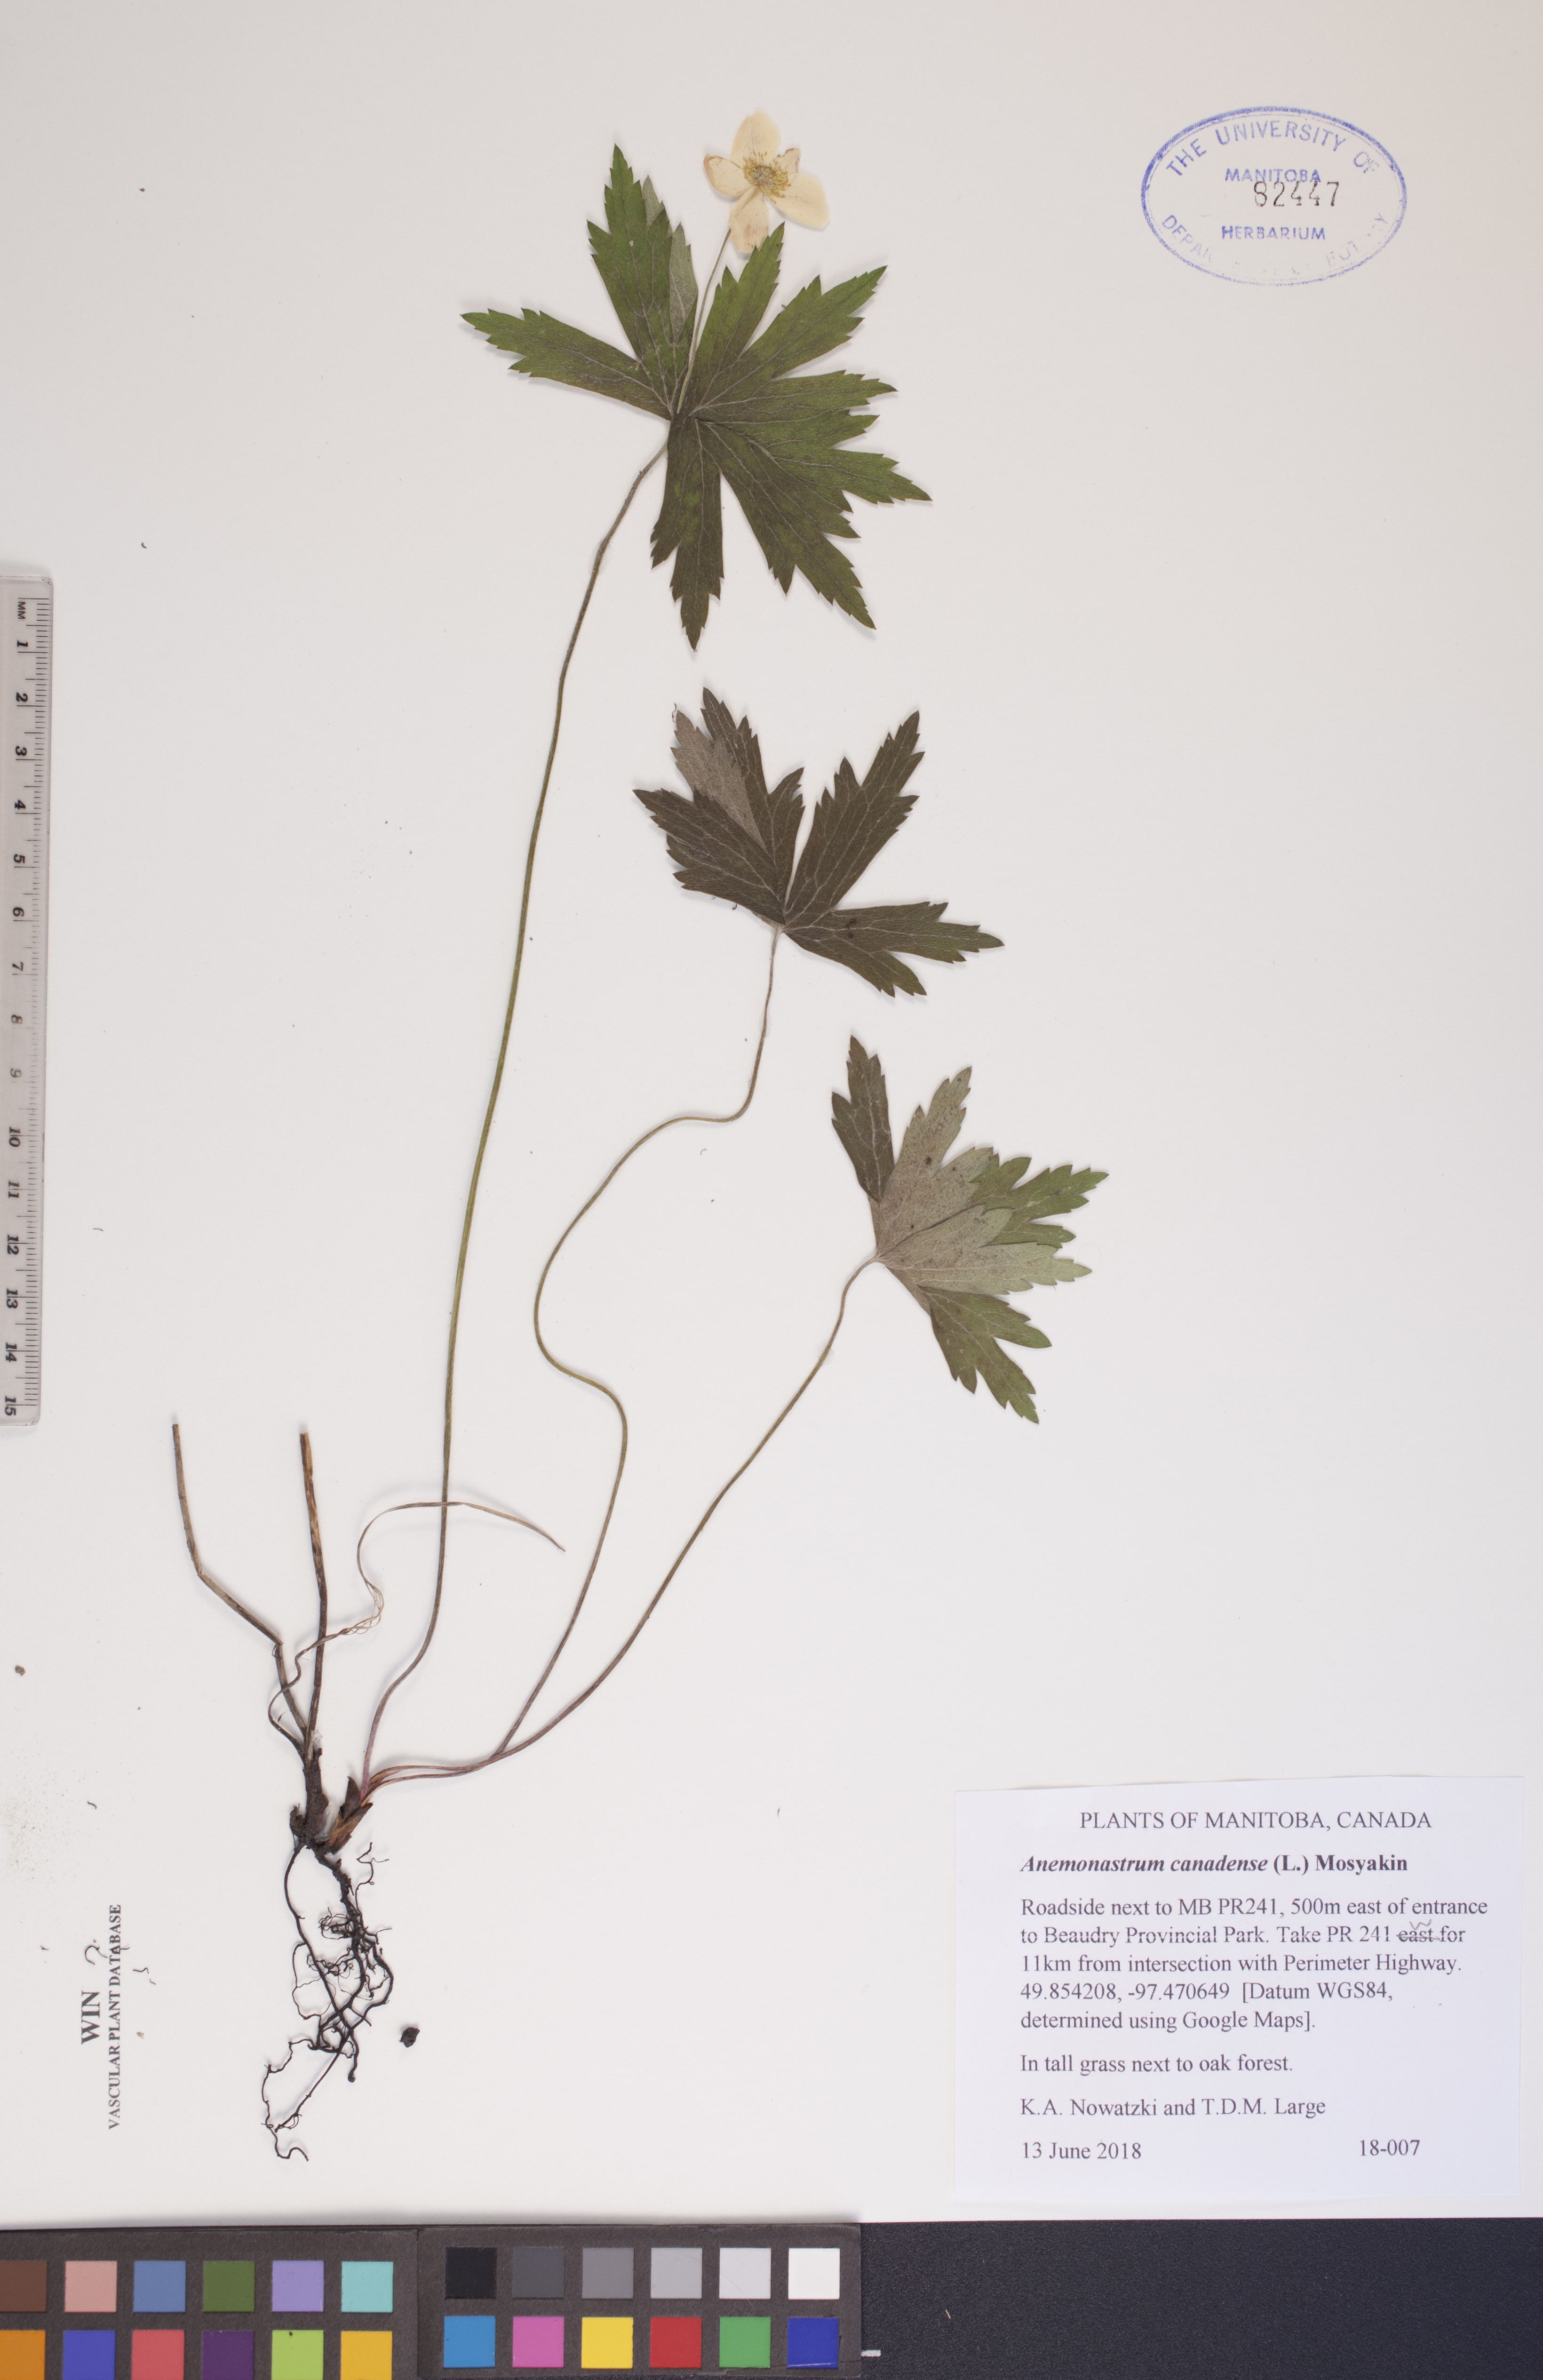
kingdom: Plantae
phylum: Tracheophyta
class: Magnoliopsida
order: Ranunculales
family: Ranunculaceae
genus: Anemonastrum
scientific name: Anemonastrum canadense
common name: Canada anemone
